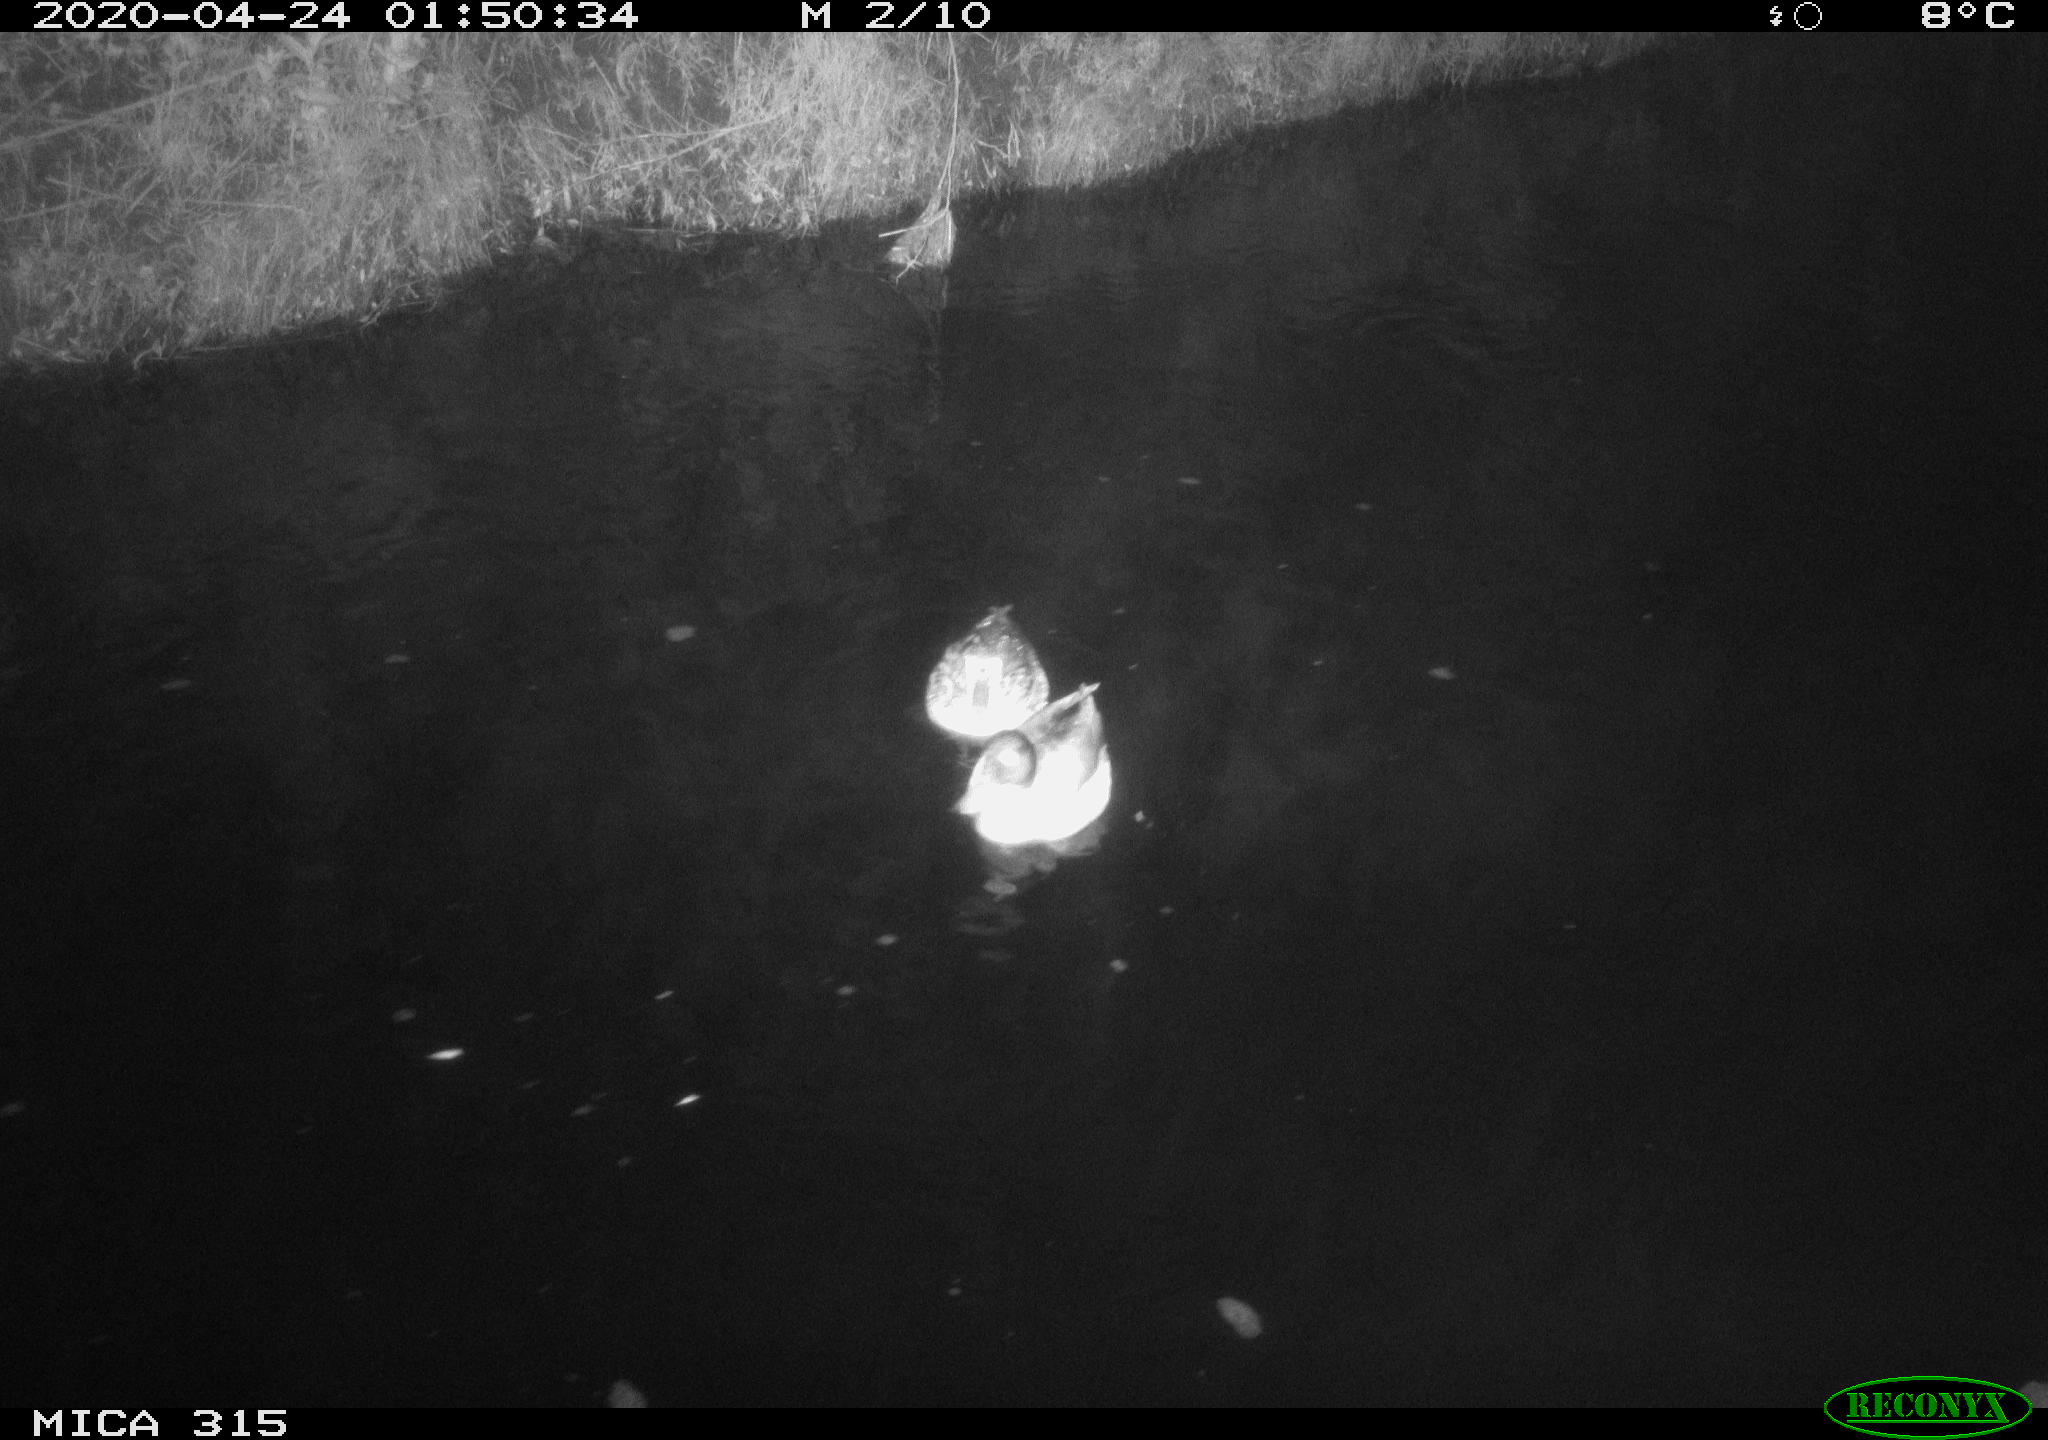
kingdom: Animalia
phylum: Chordata
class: Aves
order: Anseriformes
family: Anatidae
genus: Anas
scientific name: Anas platyrhynchos
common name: Mallard
